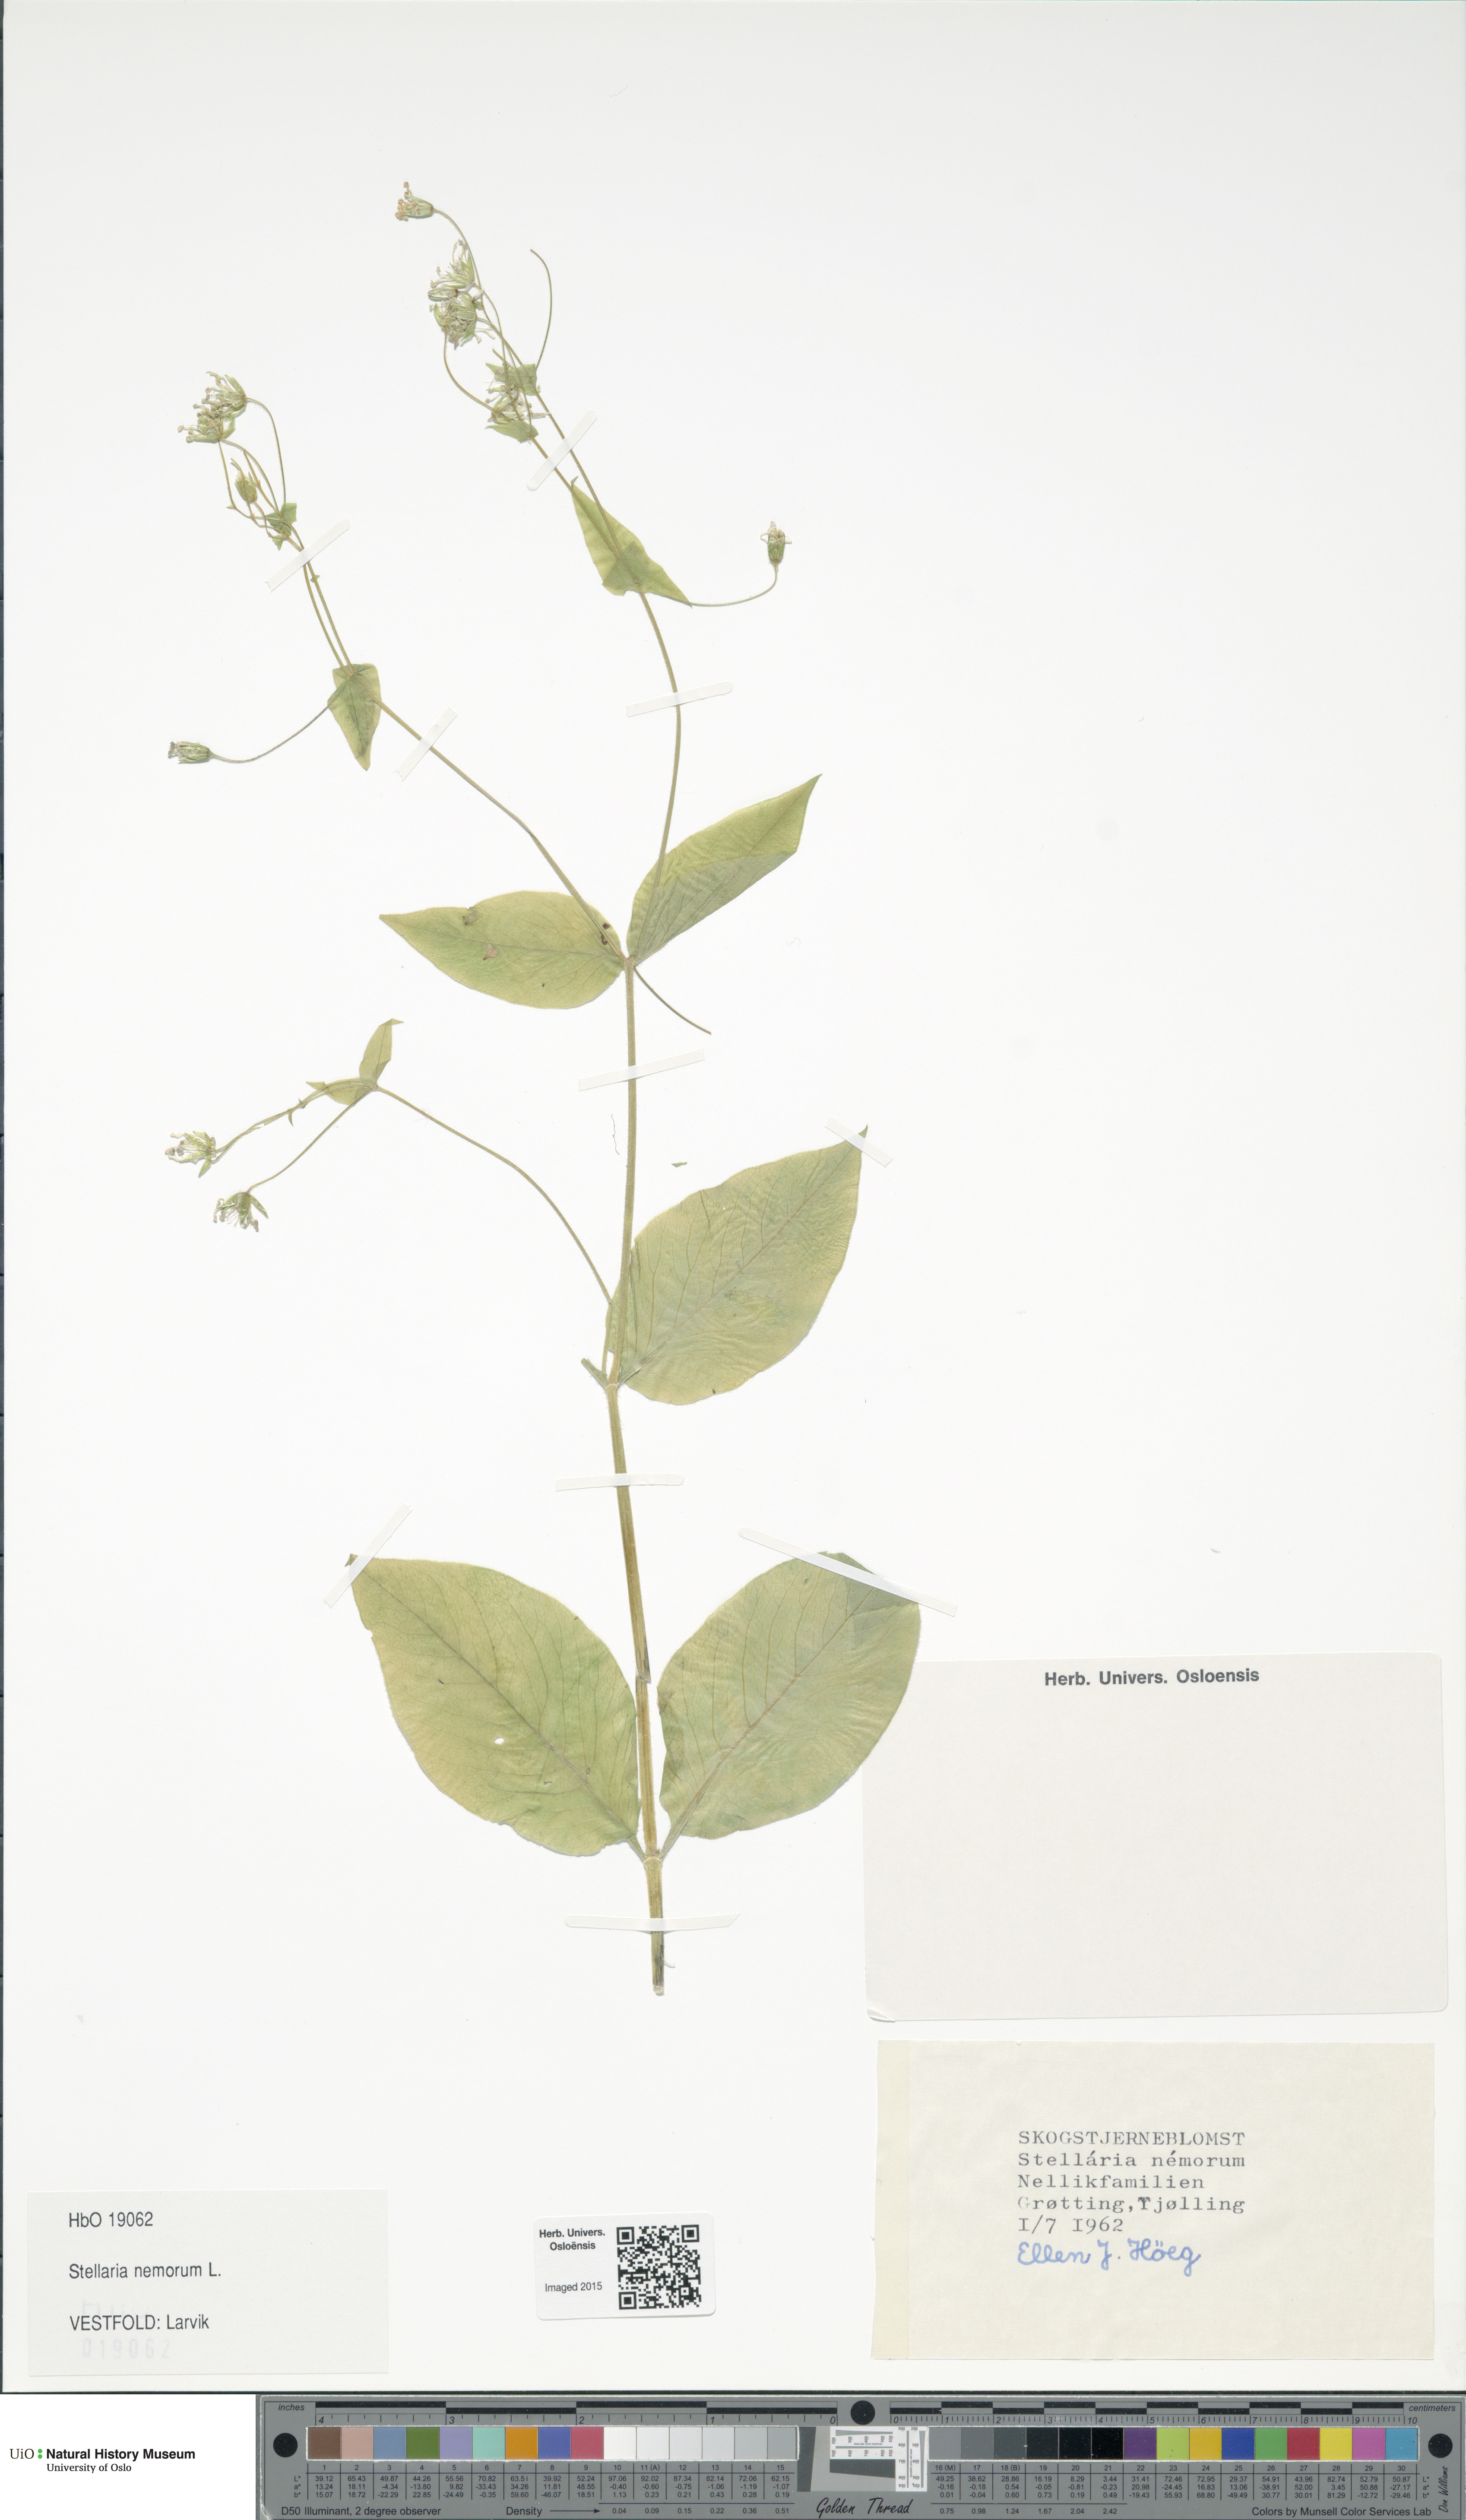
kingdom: Plantae
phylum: Tracheophyta
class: Magnoliopsida
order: Caryophyllales
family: Caryophyllaceae
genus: Stellaria
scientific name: Stellaria nemorum
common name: Wood stitchwort
